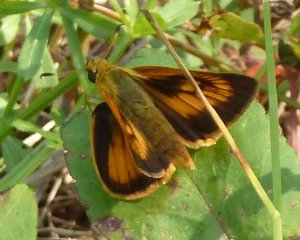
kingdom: Animalia
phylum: Arthropoda
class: Insecta
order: Lepidoptera
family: Hesperiidae
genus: Atrytone
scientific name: Atrytone delaware
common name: Delaware Skipper
